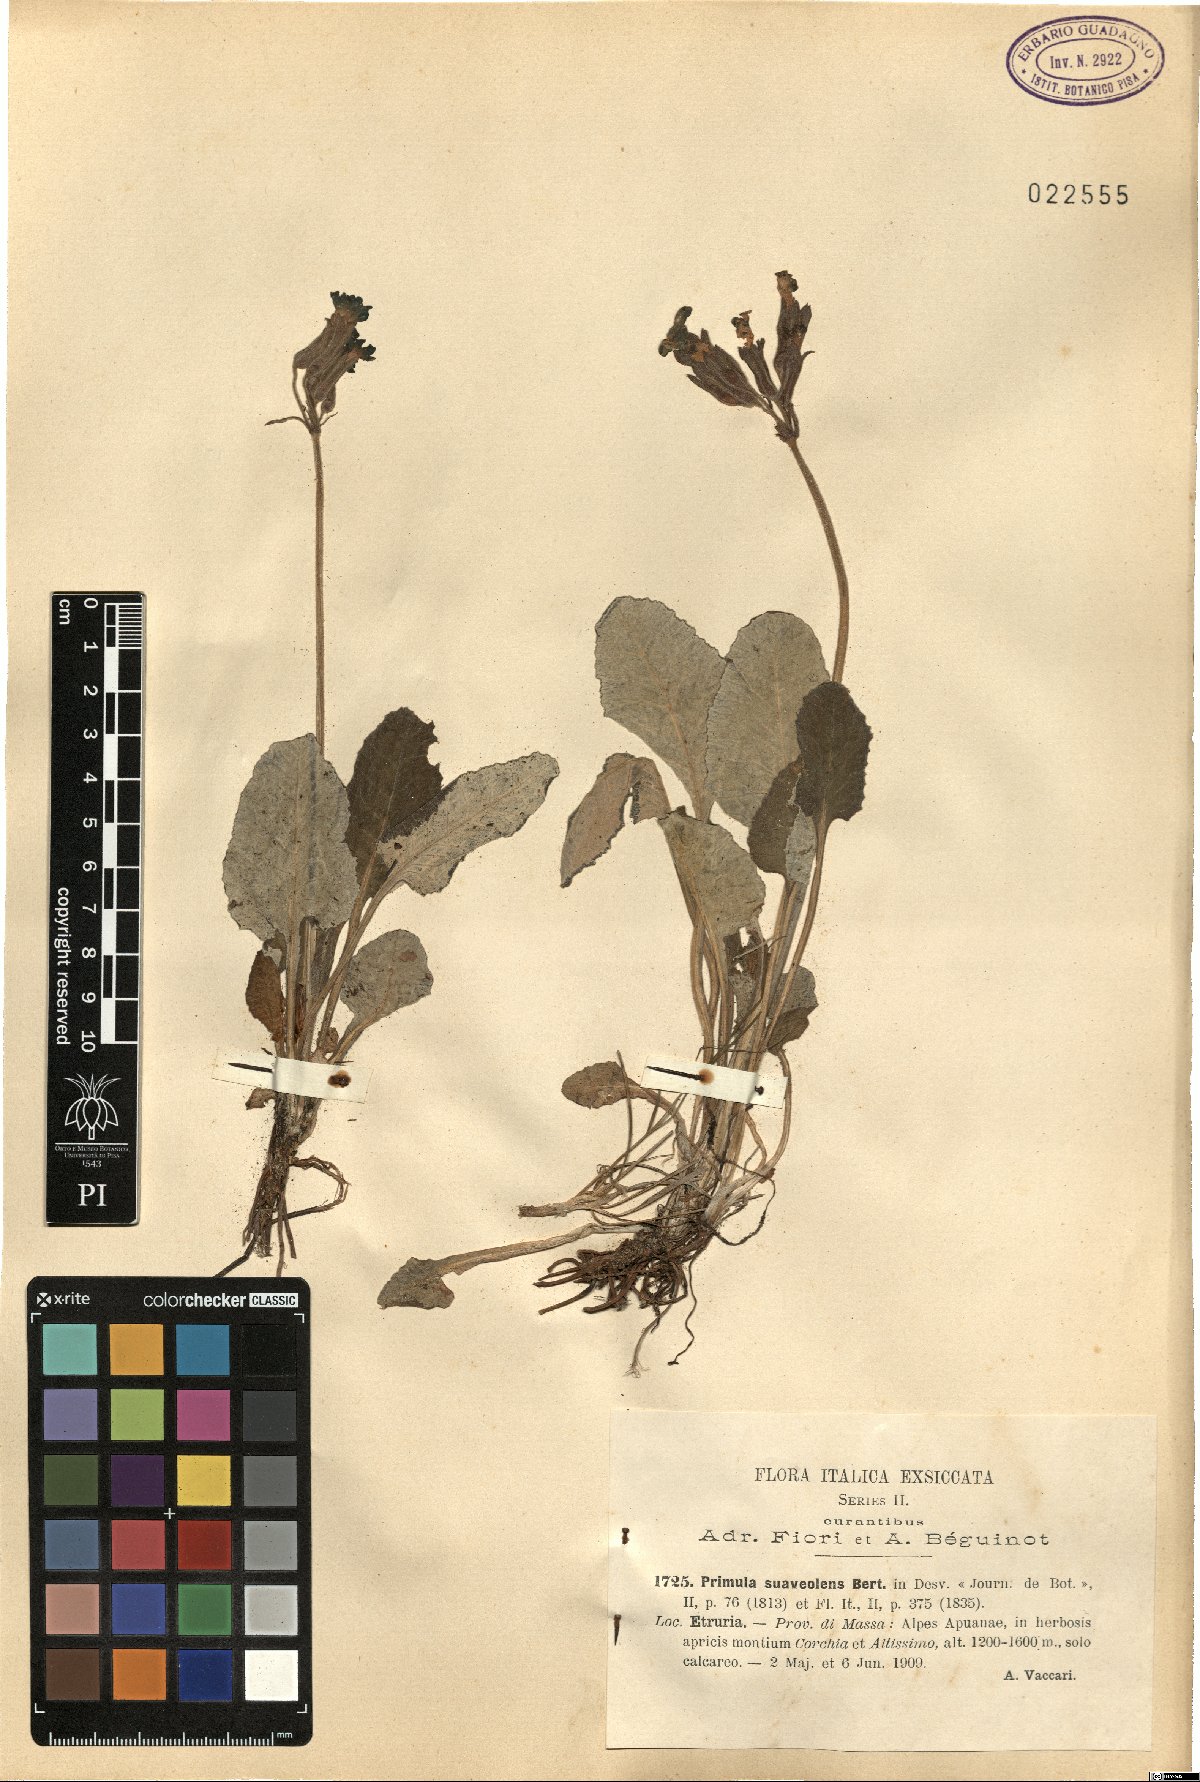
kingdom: Plantae
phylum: Tracheophyta
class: Magnoliopsida
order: Ericales
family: Primulaceae
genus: Primula
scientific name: Primula veris
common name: Cowslip
